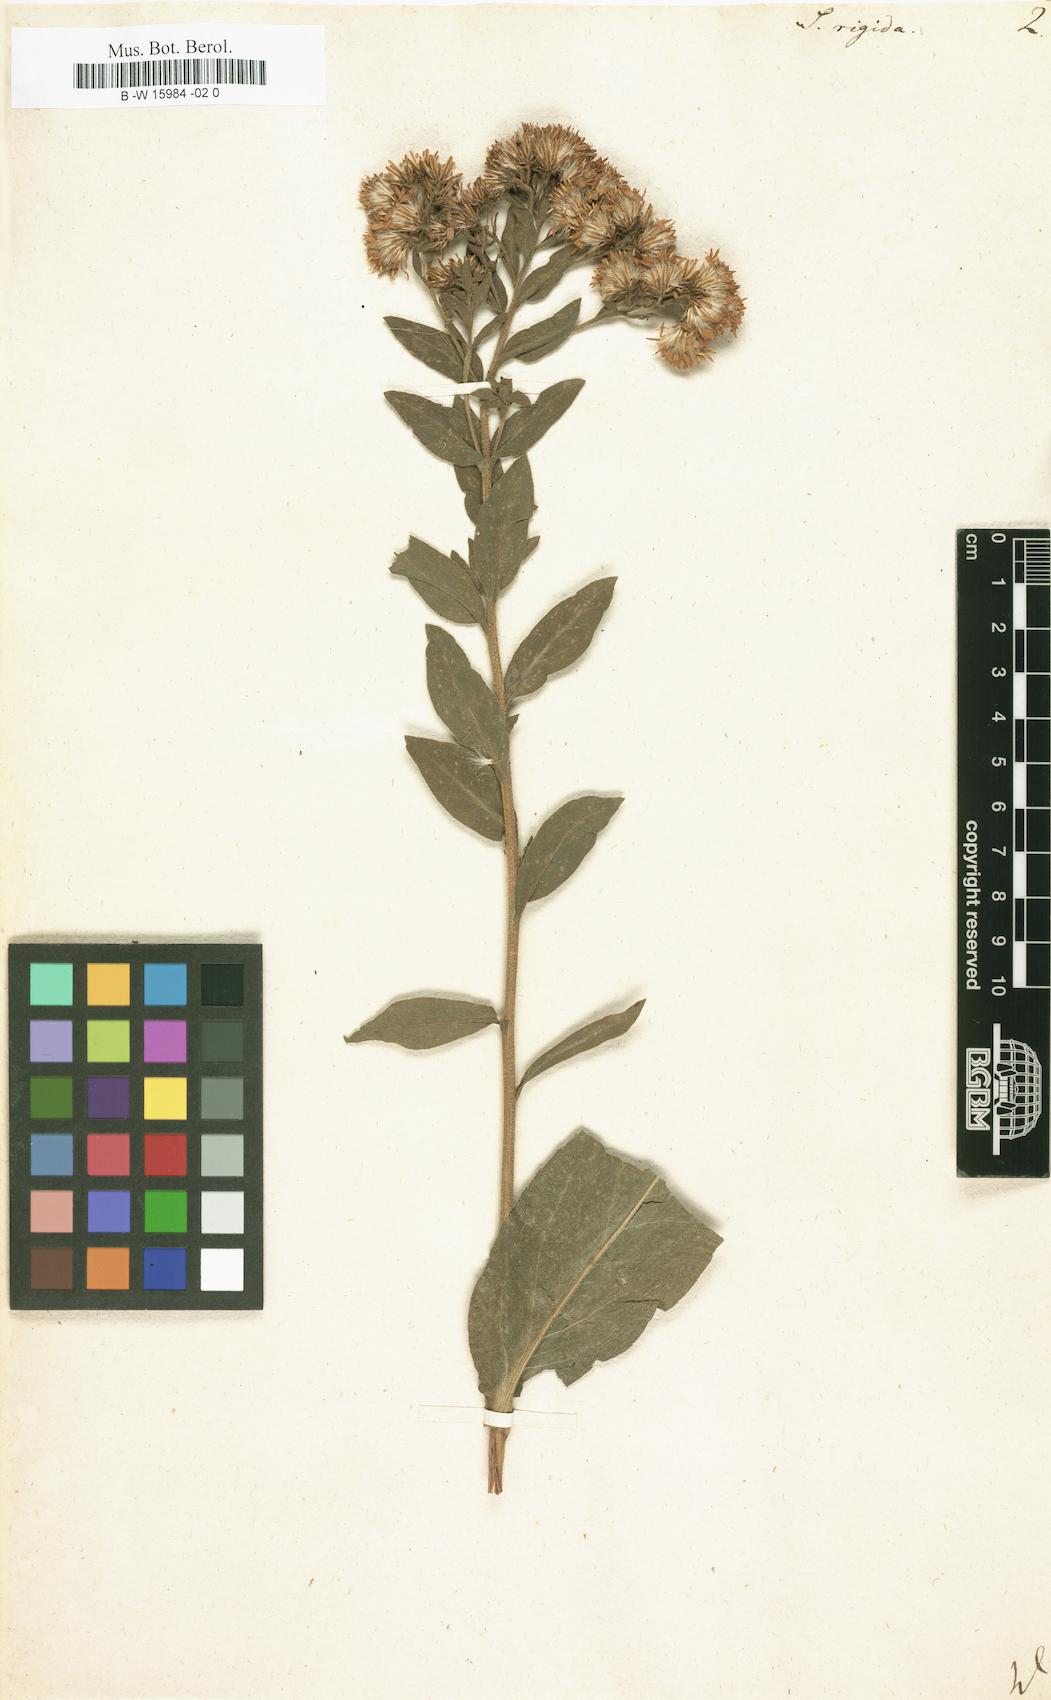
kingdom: Plantae
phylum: Tracheophyta
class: Magnoliopsida
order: Asterales
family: Asteraceae
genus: Solidago
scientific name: Solidago rigida
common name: Rigid goldenrod
